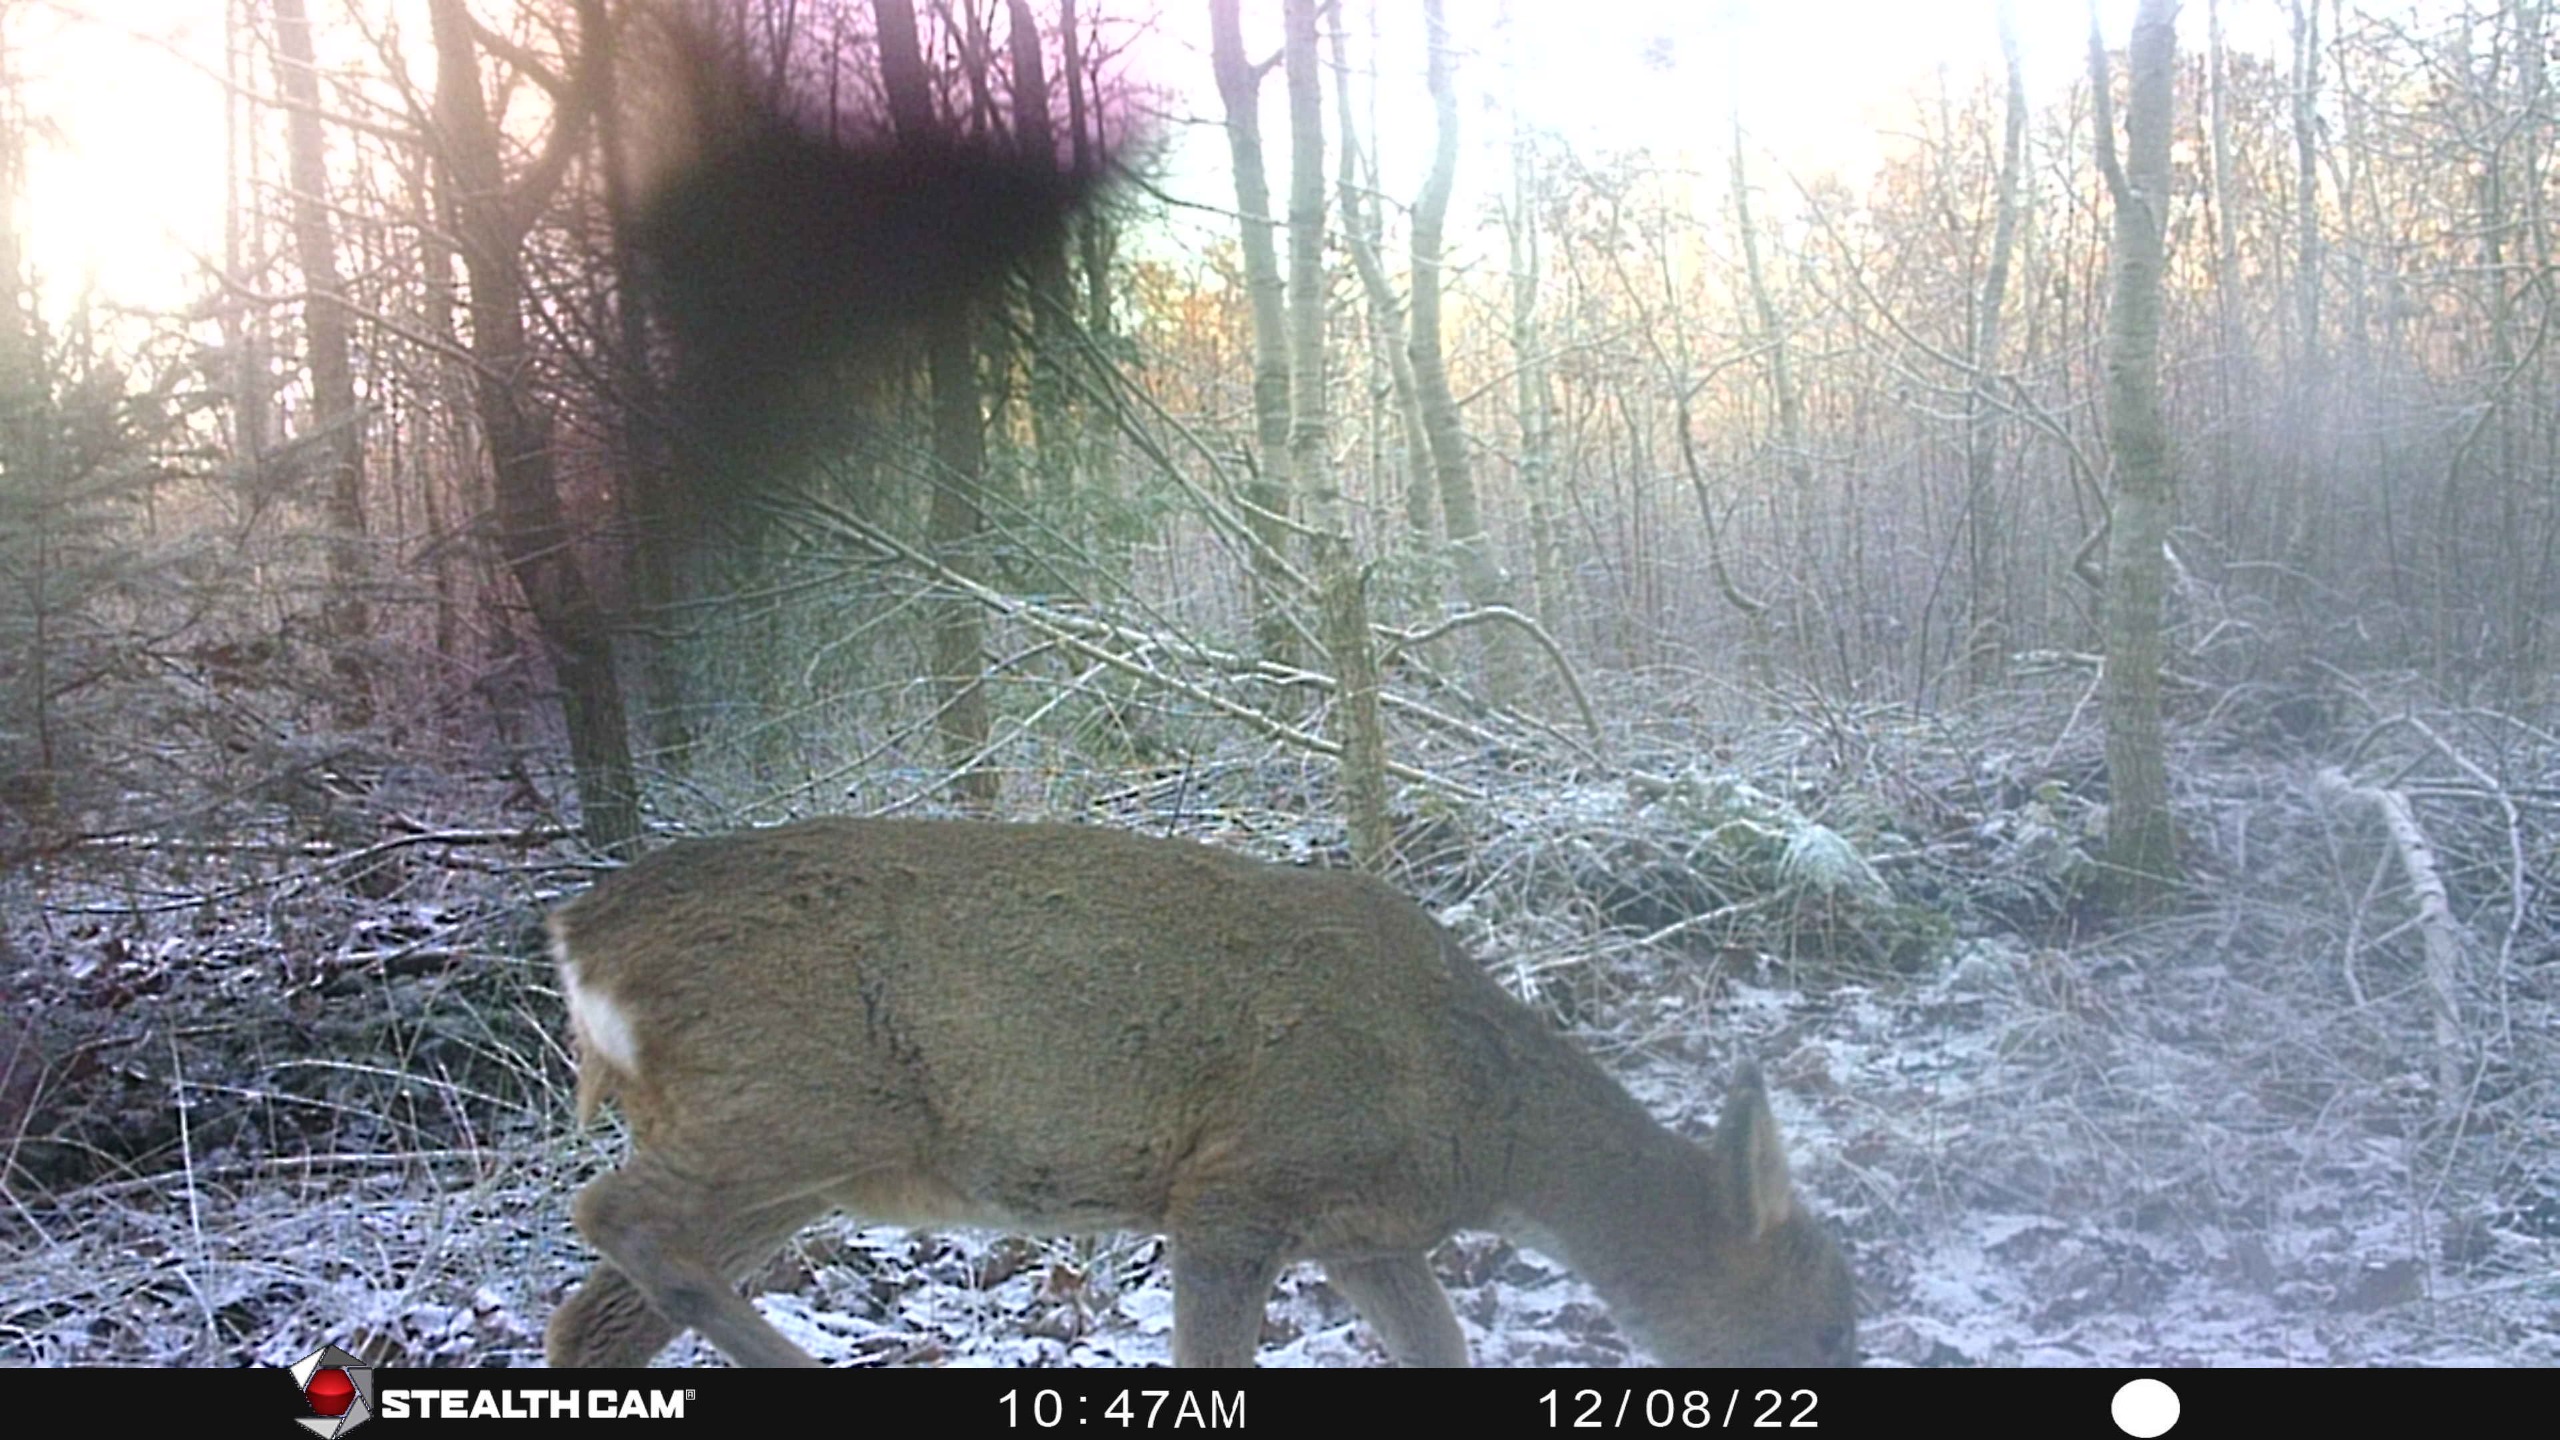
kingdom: Animalia
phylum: Chordata
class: Mammalia
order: Artiodactyla
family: Cervidae
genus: Capreolus
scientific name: Capreolus capreolus
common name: Rådyr
